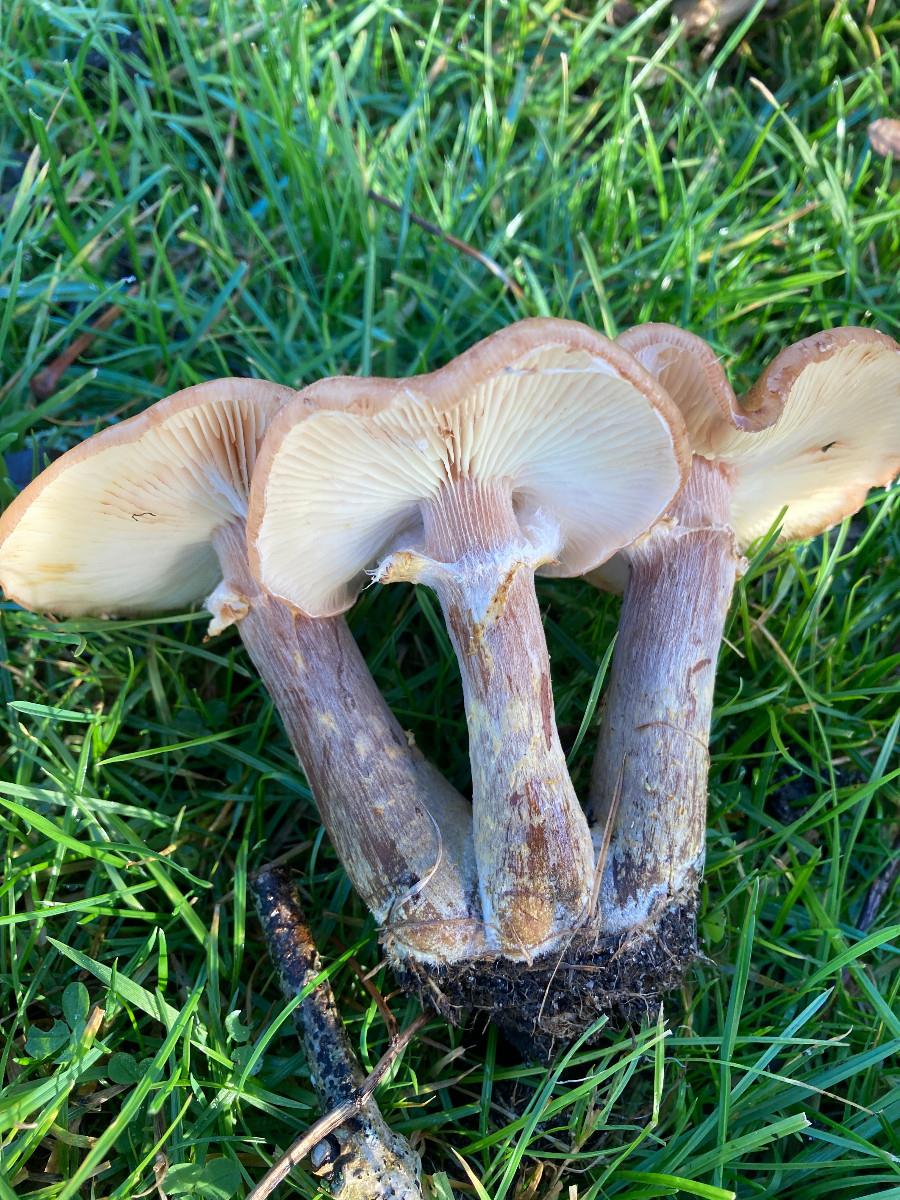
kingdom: Fungi
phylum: Basidiomycota
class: Agaricomycetes
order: Agaricales
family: Physalacriaceae
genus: Armillaria
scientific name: Armillaria lutea
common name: køllestokket honningsvamp
